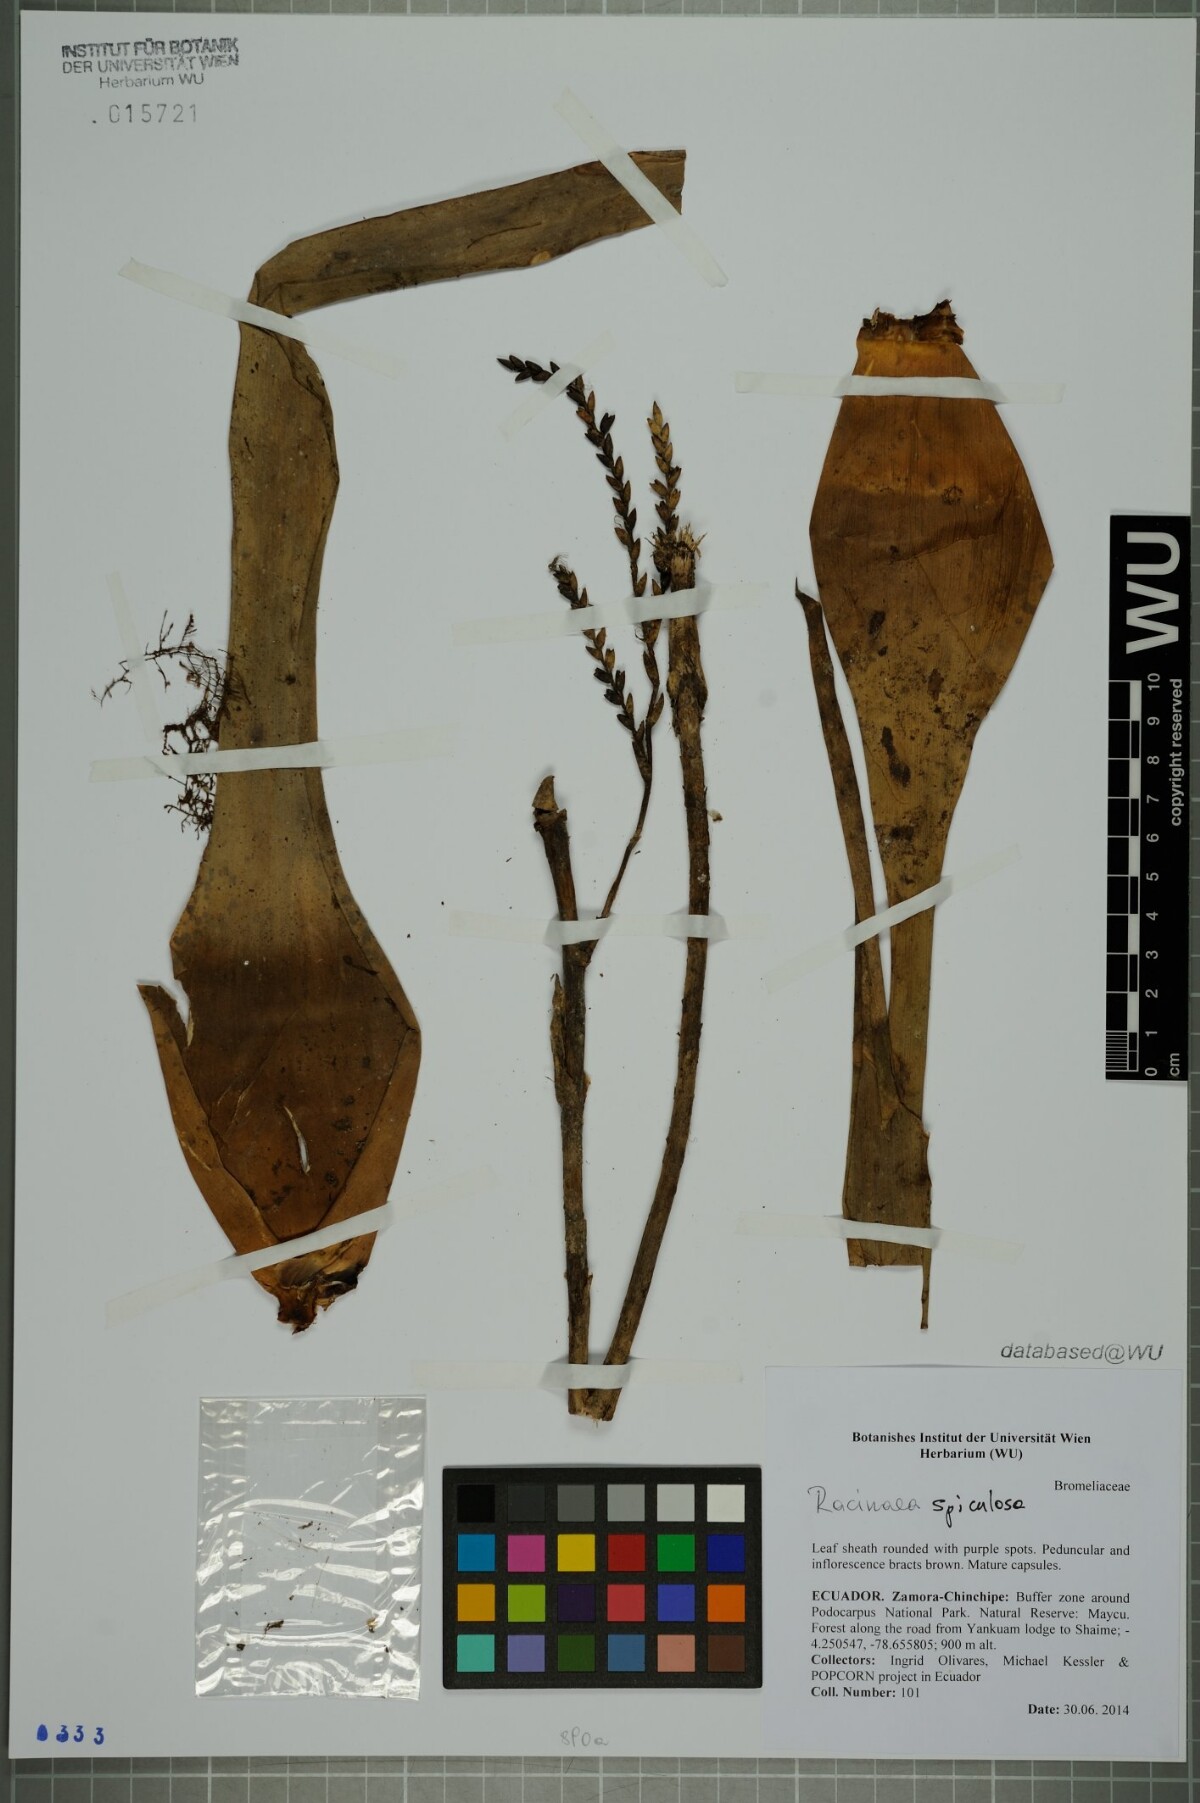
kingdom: Plantae
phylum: Tracheophyta
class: Liliopsida
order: Poales
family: Bromeliaceae
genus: Racinaea
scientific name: Racinaea spiculosa
